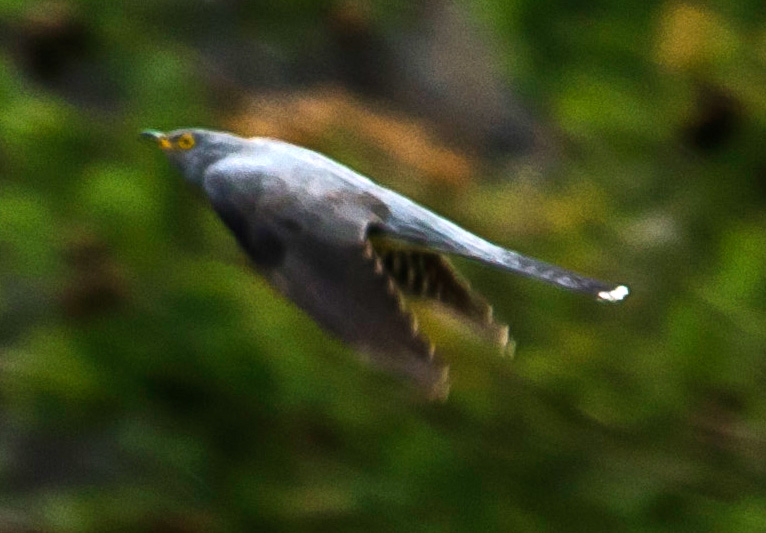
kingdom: Animalia
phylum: Chordata
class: Aves
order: Cuculiformes
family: Cuculidae
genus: Cuculus
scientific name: Cuculus canorus
